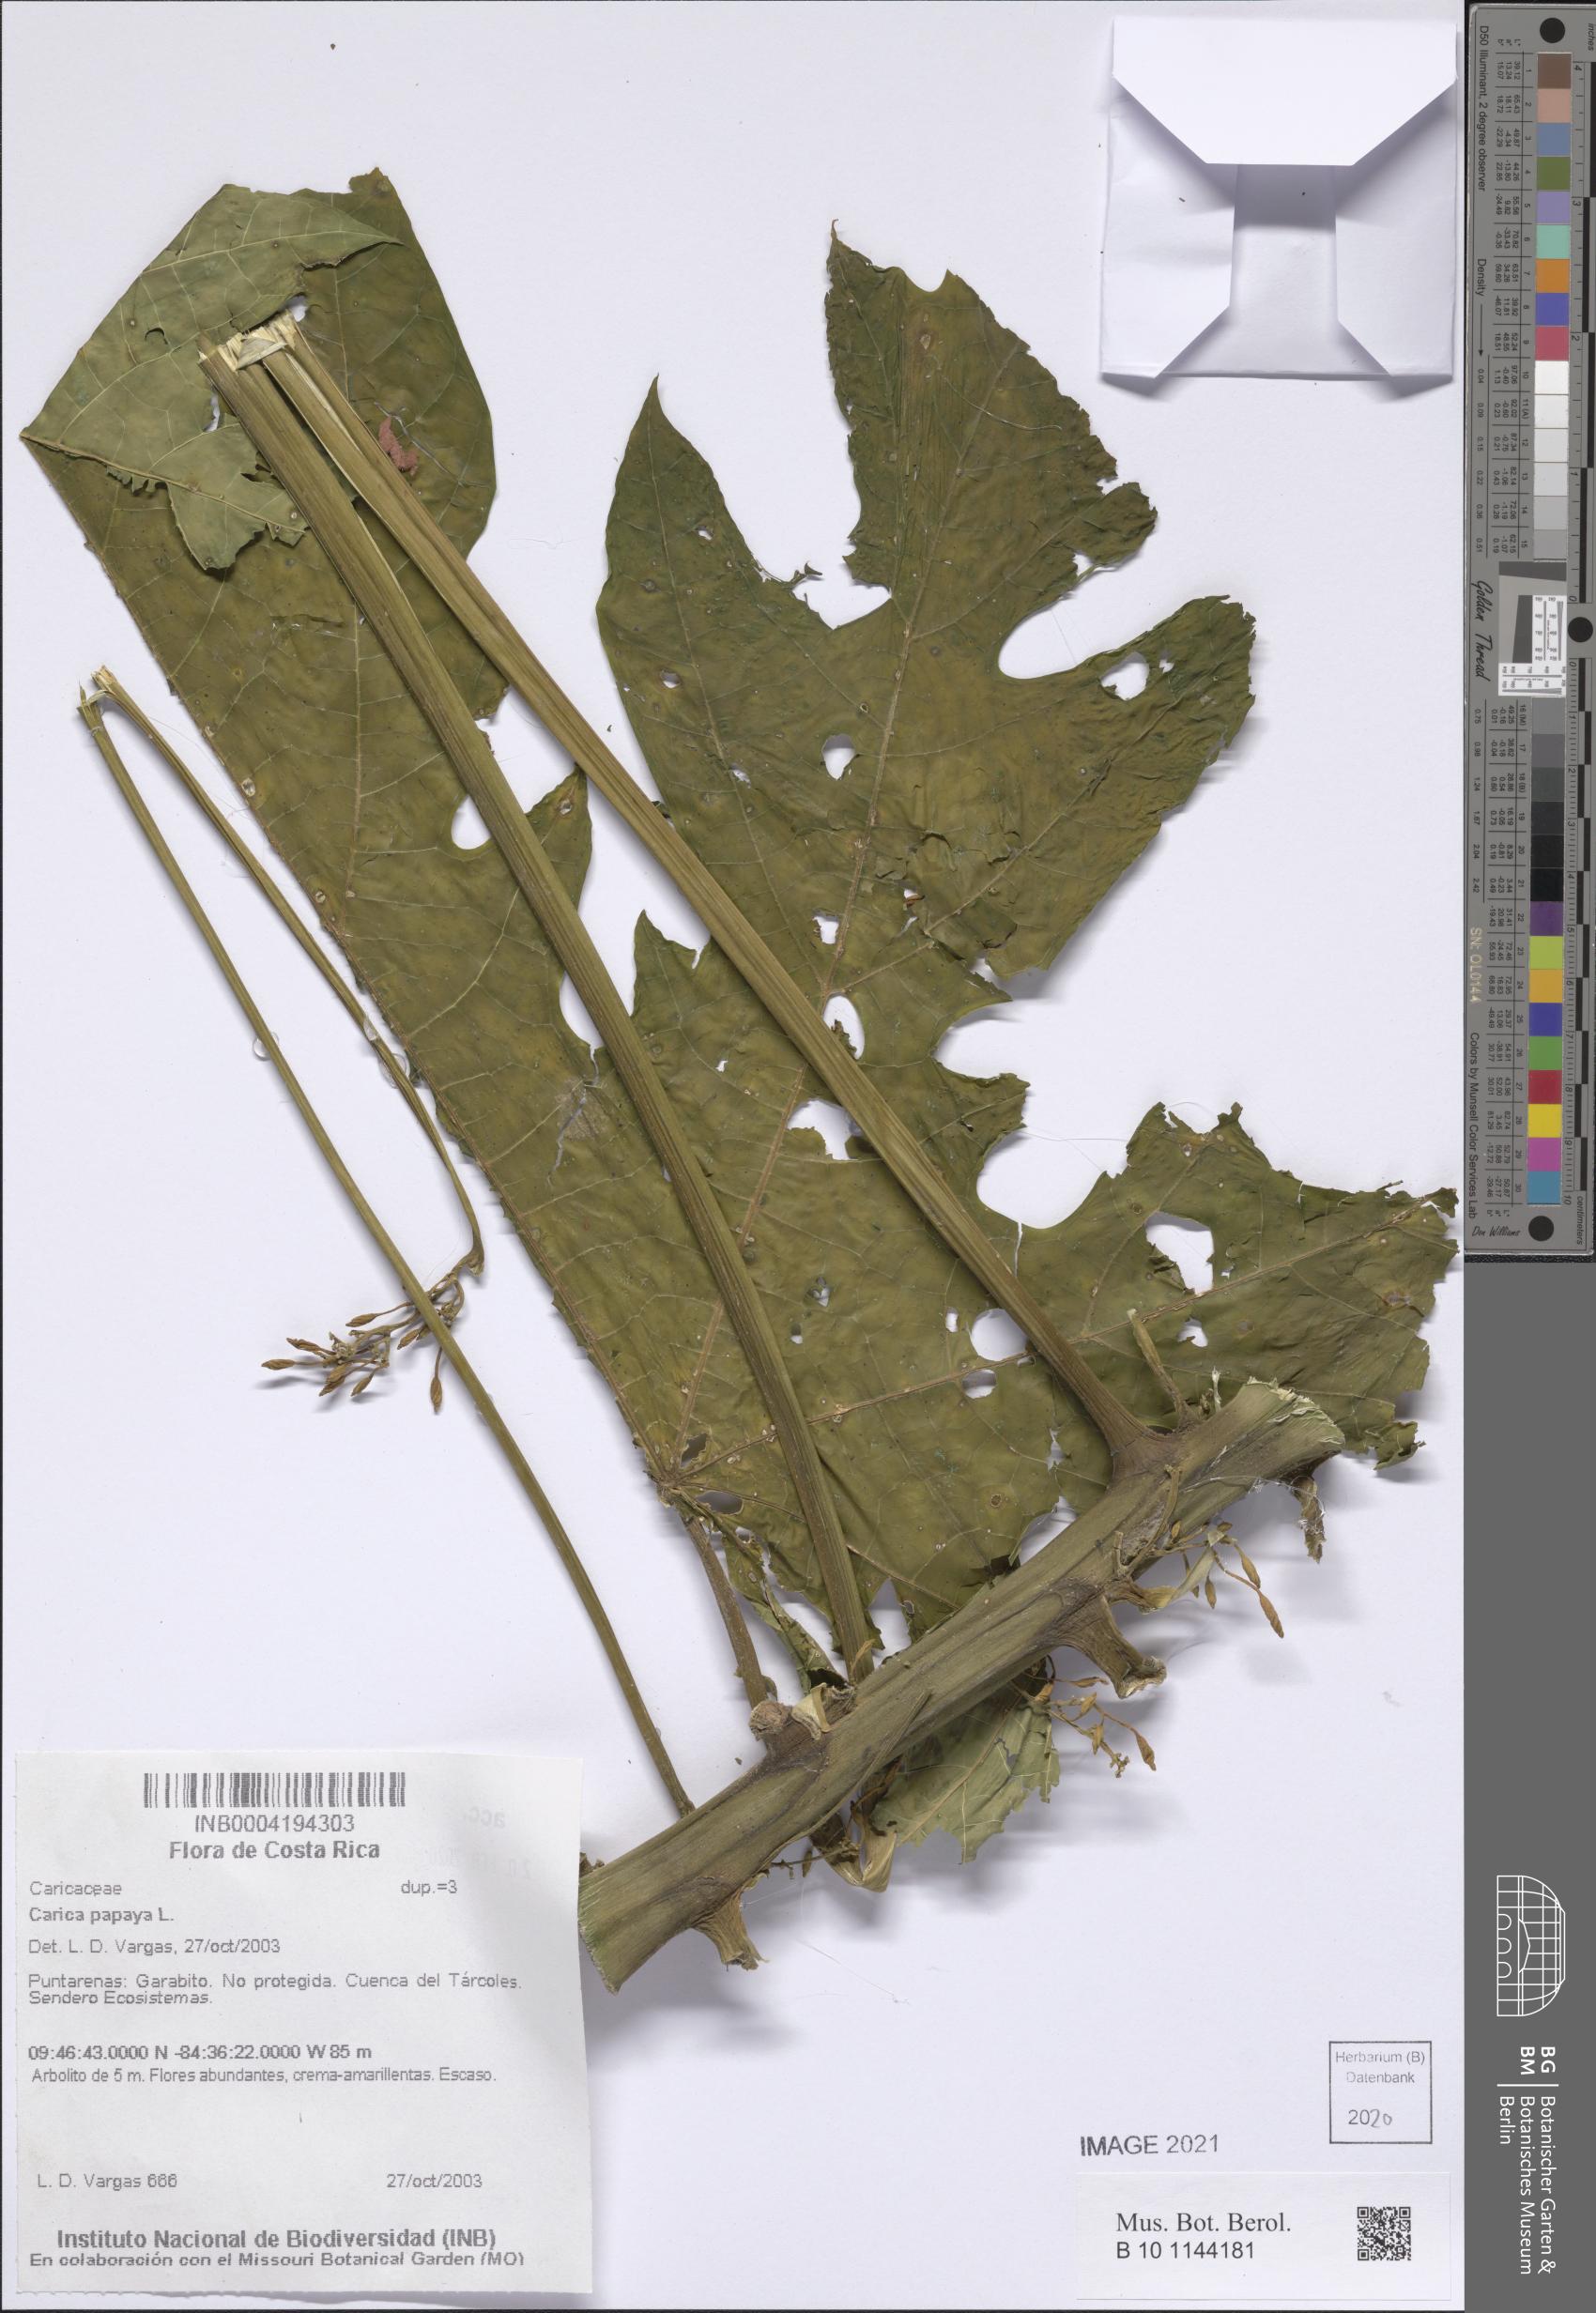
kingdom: Plantae
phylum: Tracheophyta
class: Magnoliopsida
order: Brassicales
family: Caricaceae
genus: Carica
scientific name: Carica papaya
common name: Papaya
